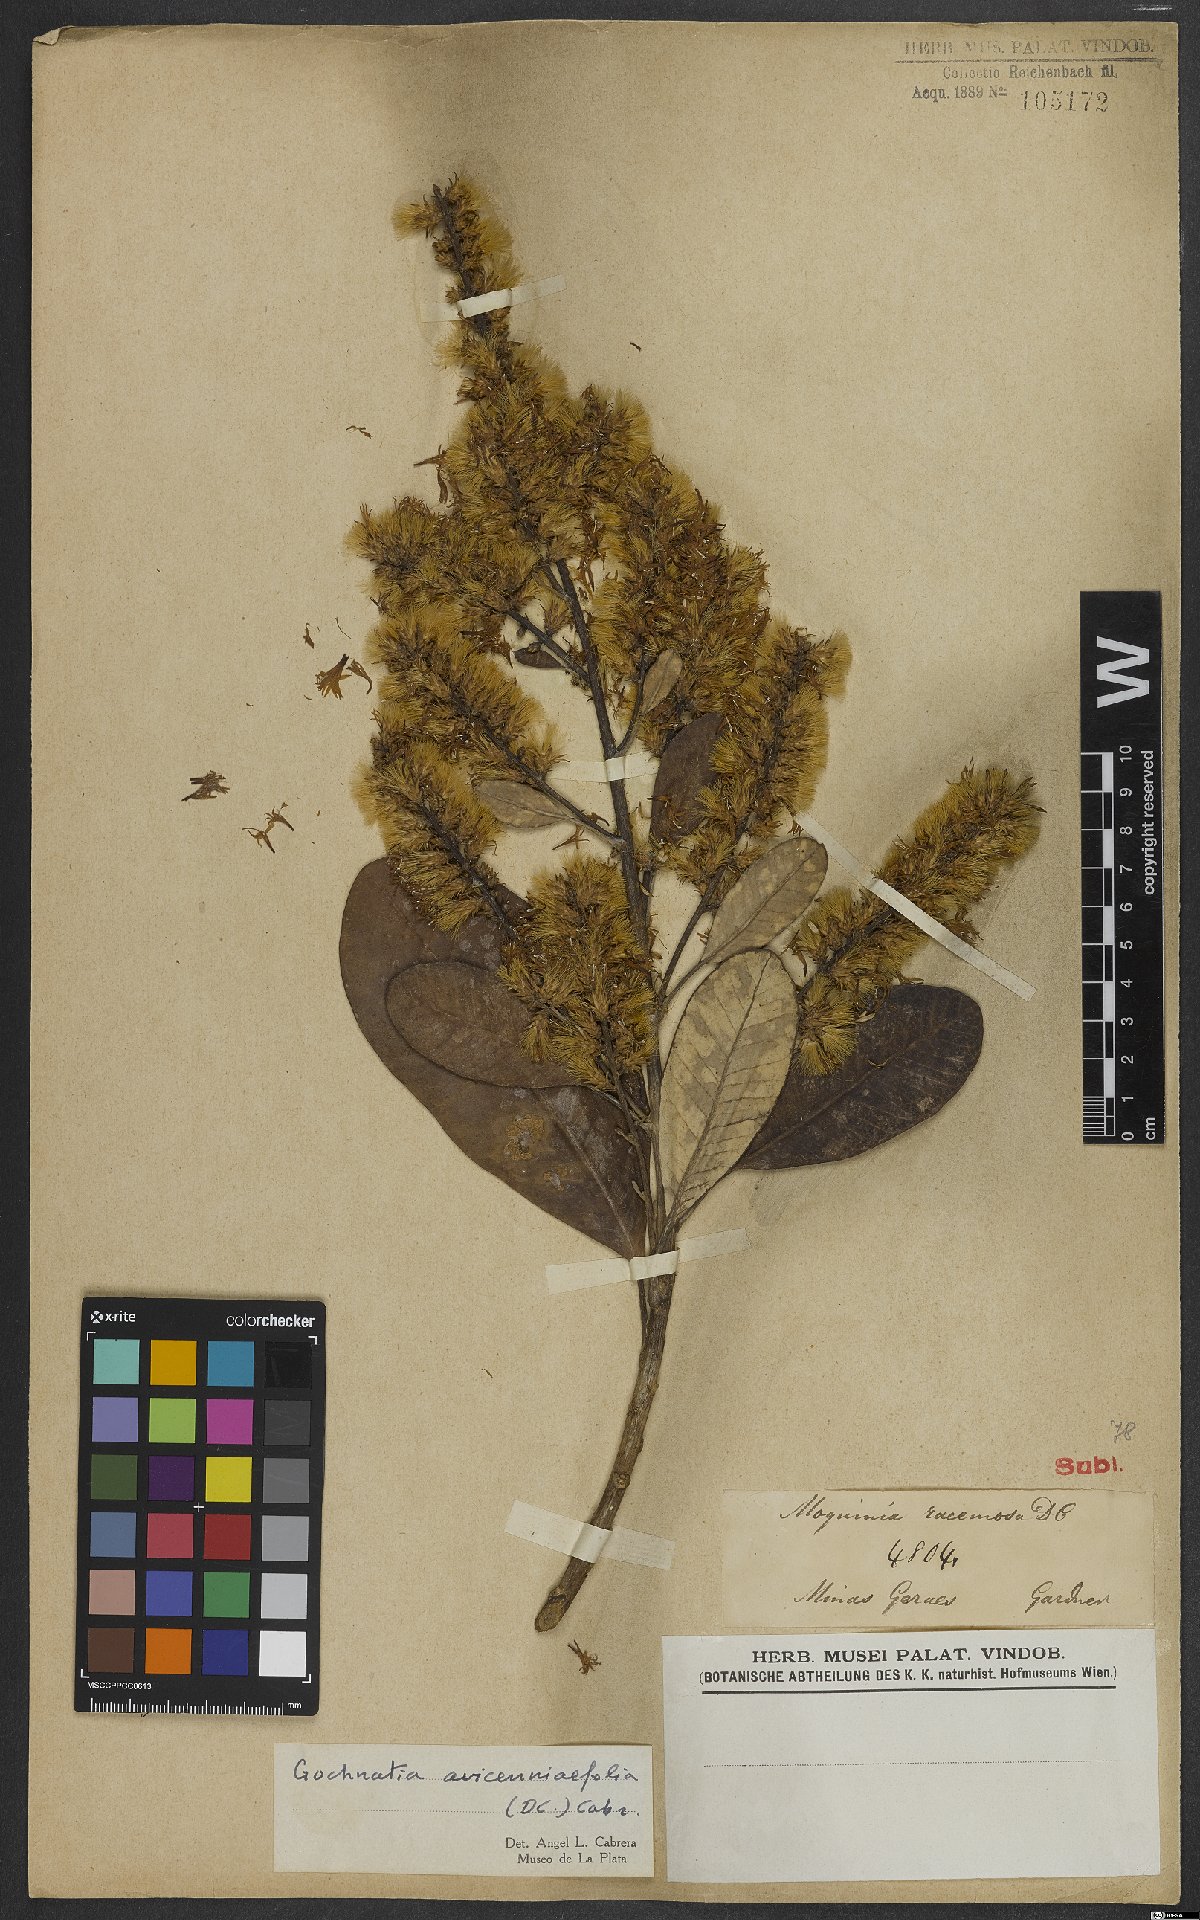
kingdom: Plantae
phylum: Tracheophyta
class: Magnoliopsida
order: Asterales
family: Asteraceae
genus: Gochnatia
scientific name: Gochnatia avicenniifolia
